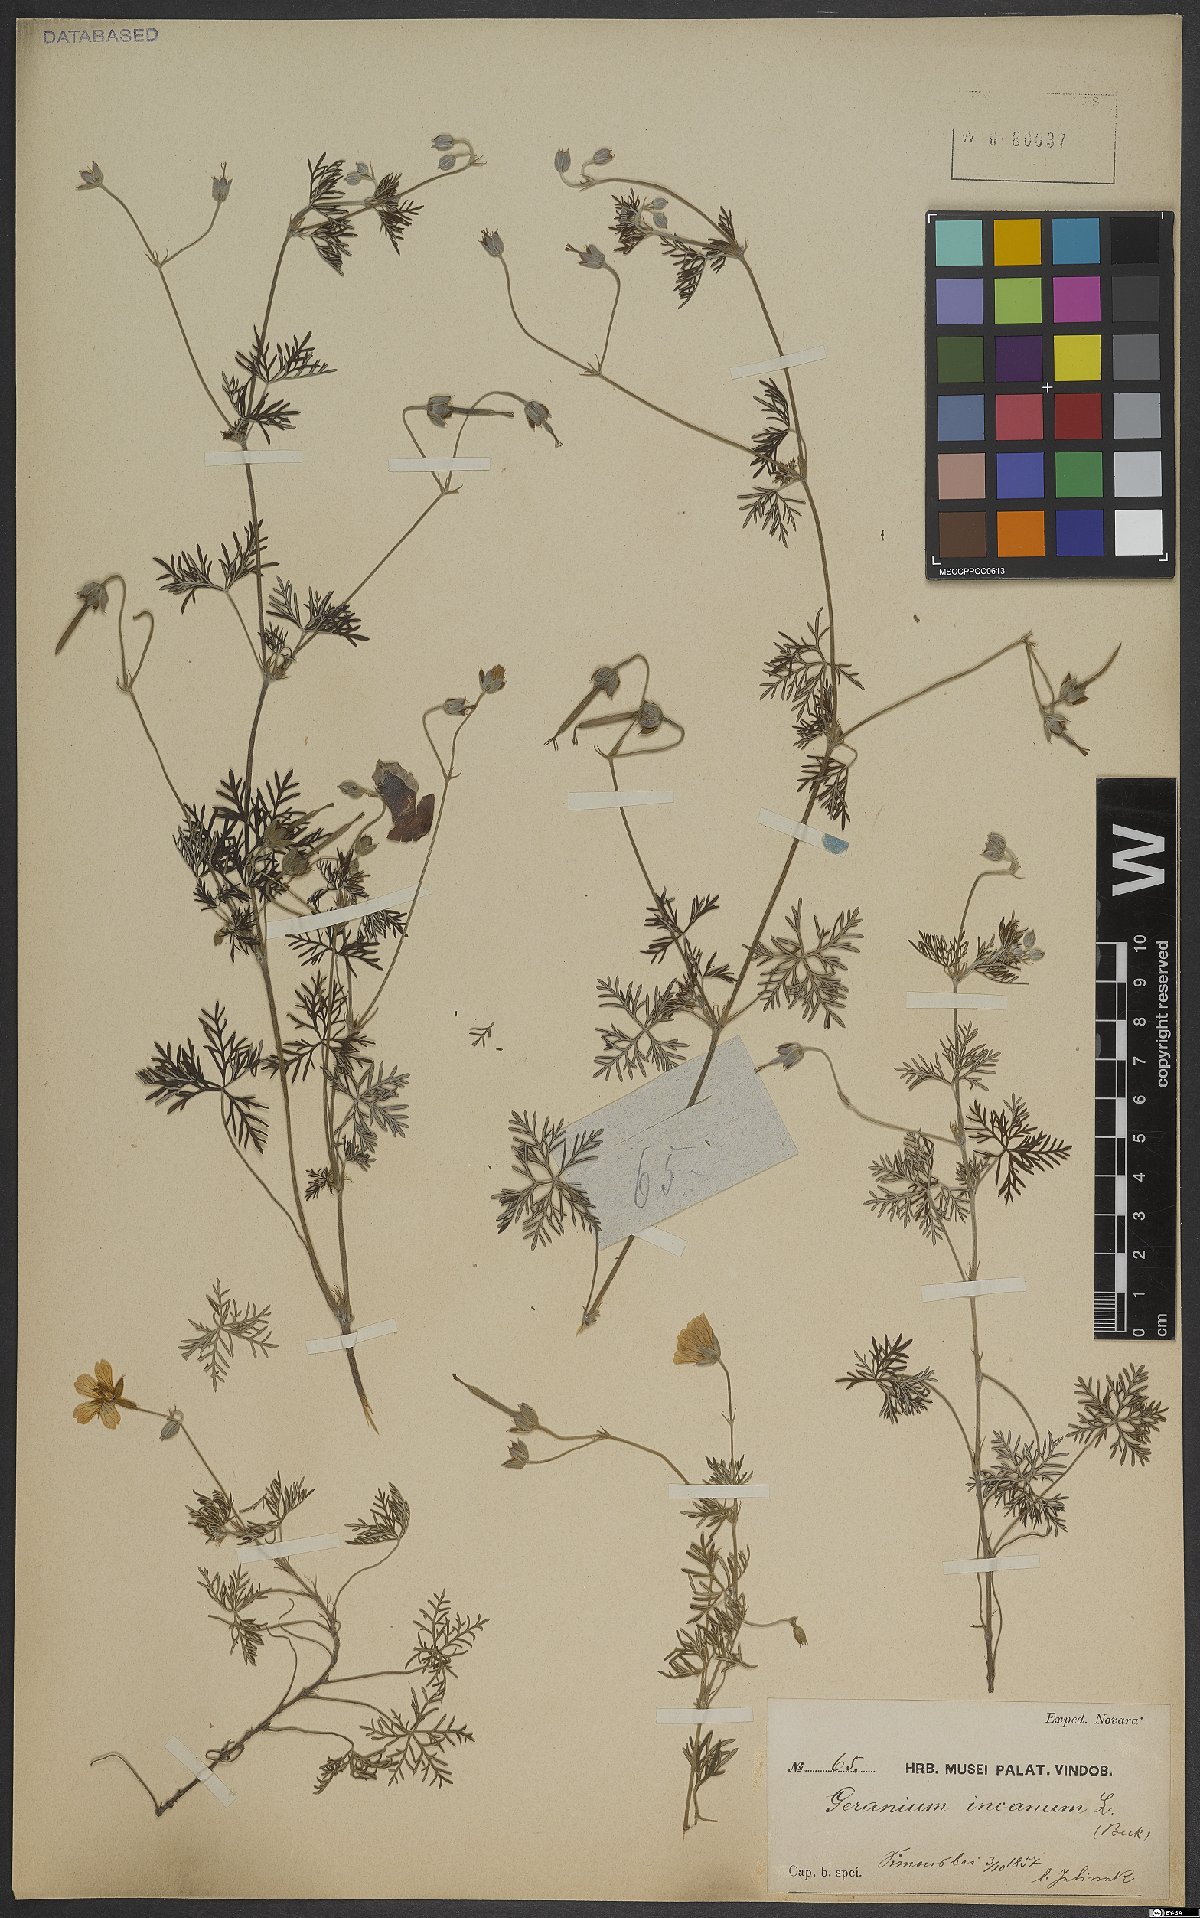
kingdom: Plantae
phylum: Tracheophyta
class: Magnoliopsida
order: Geraniales
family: Geraniaceae
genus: Geranium
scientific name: Geranium incanum
